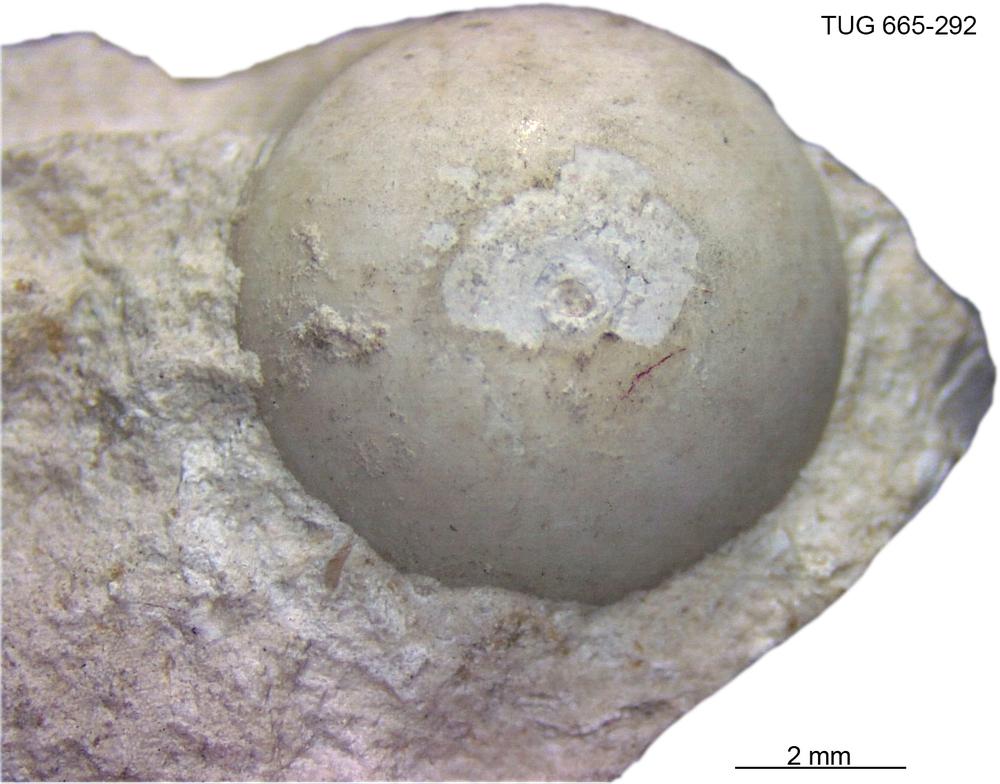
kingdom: Animalia
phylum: Mollusca
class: Cephalopoda
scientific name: Cephalopoda
